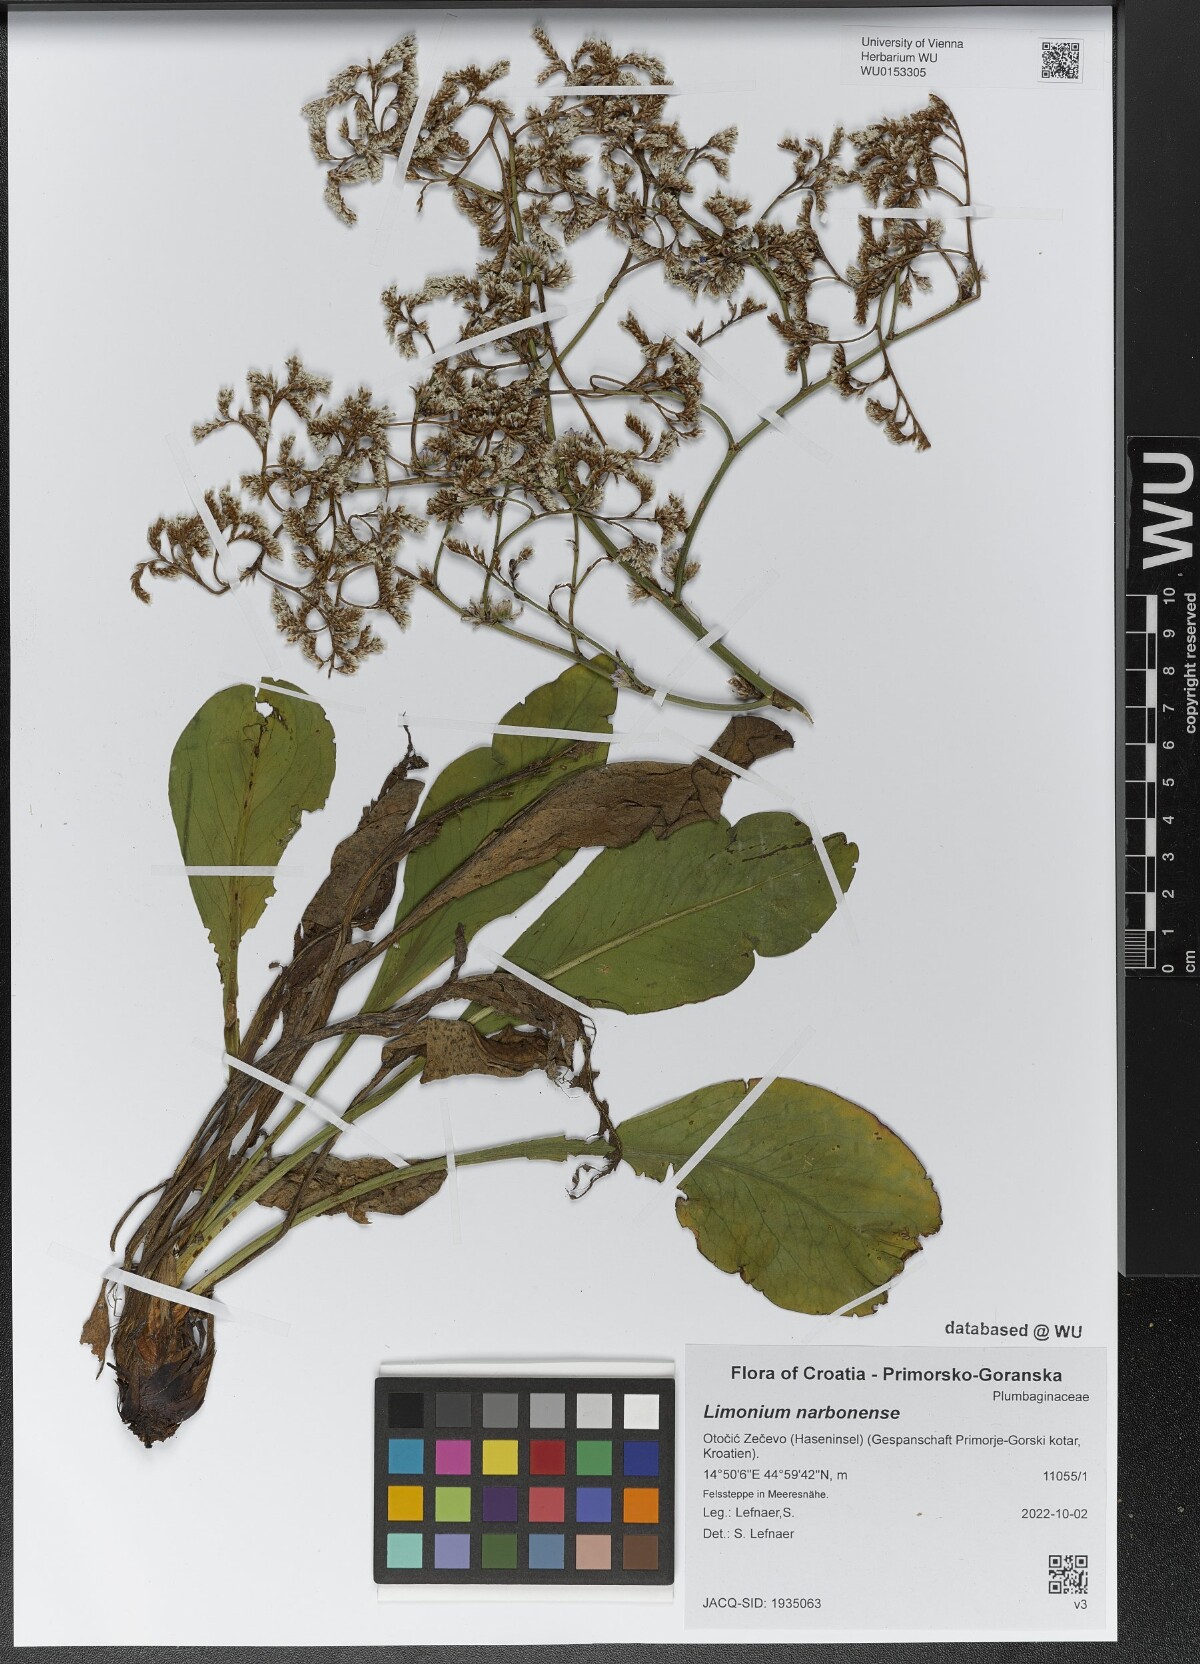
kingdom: Plantae
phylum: Tracheophyta
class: Magnoliopsida
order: Caryophyllales
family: Plumbaginaceae
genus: Limonium
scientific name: Limonium narbonense
